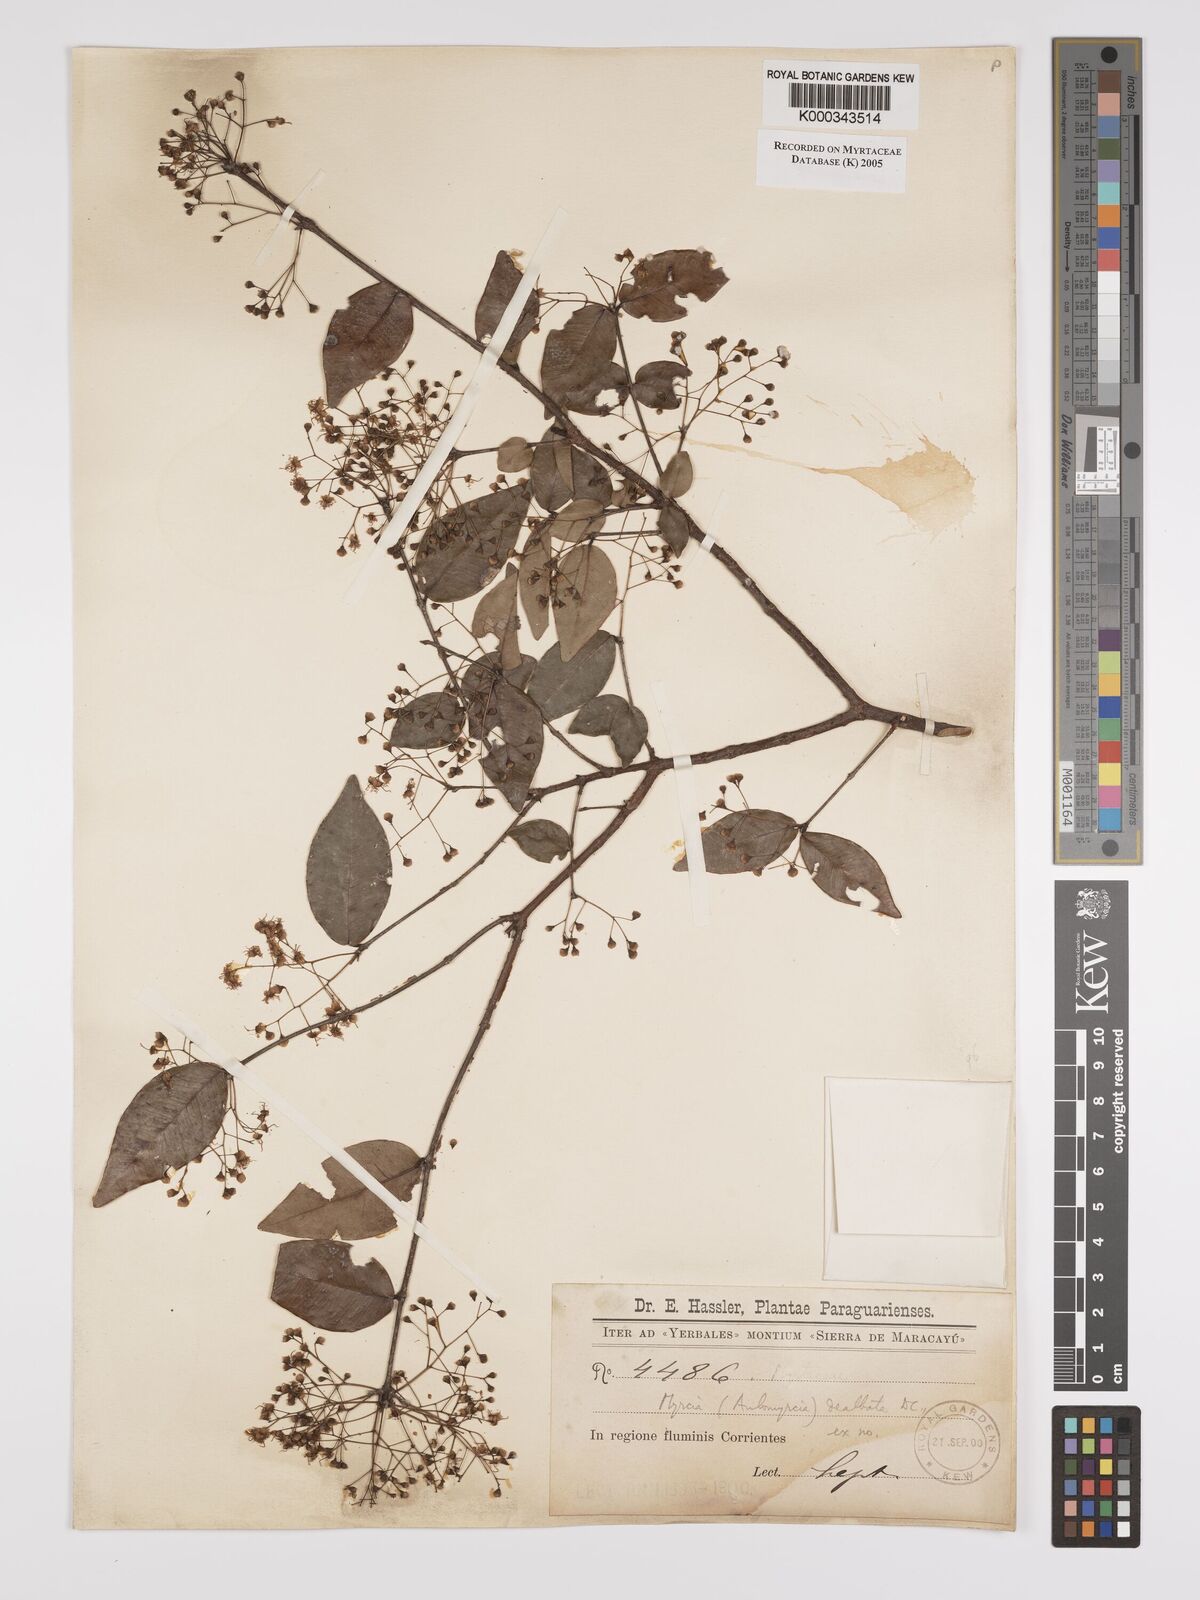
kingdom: Plantae
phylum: Tracheophyta
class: Magnoliopsida
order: Myrtales
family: Myrtaceae
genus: Myrcia
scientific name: Myrcia laruotteana
